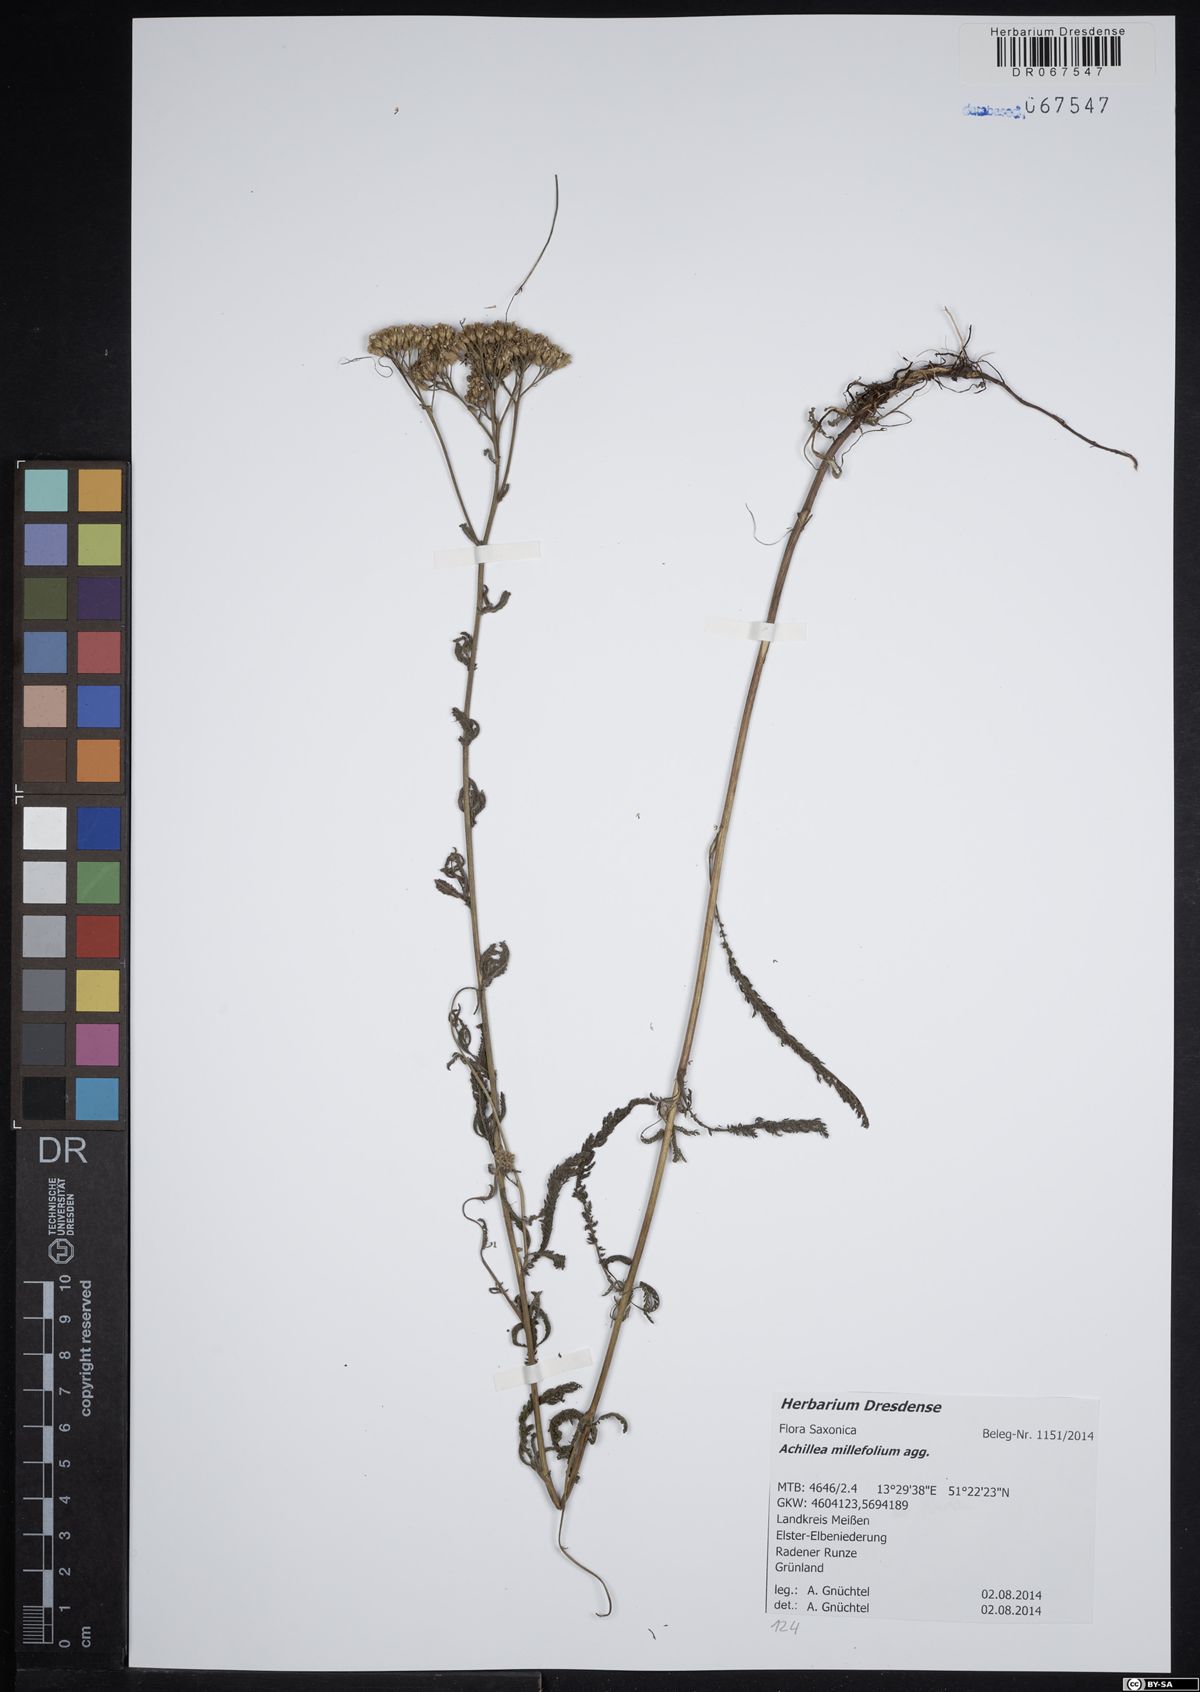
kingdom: Plantae
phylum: Tracheophyta
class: Magnoliopsida
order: Asterales
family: Asteraceae
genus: Achillea
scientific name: Achillea millefolium
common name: Yarrow
